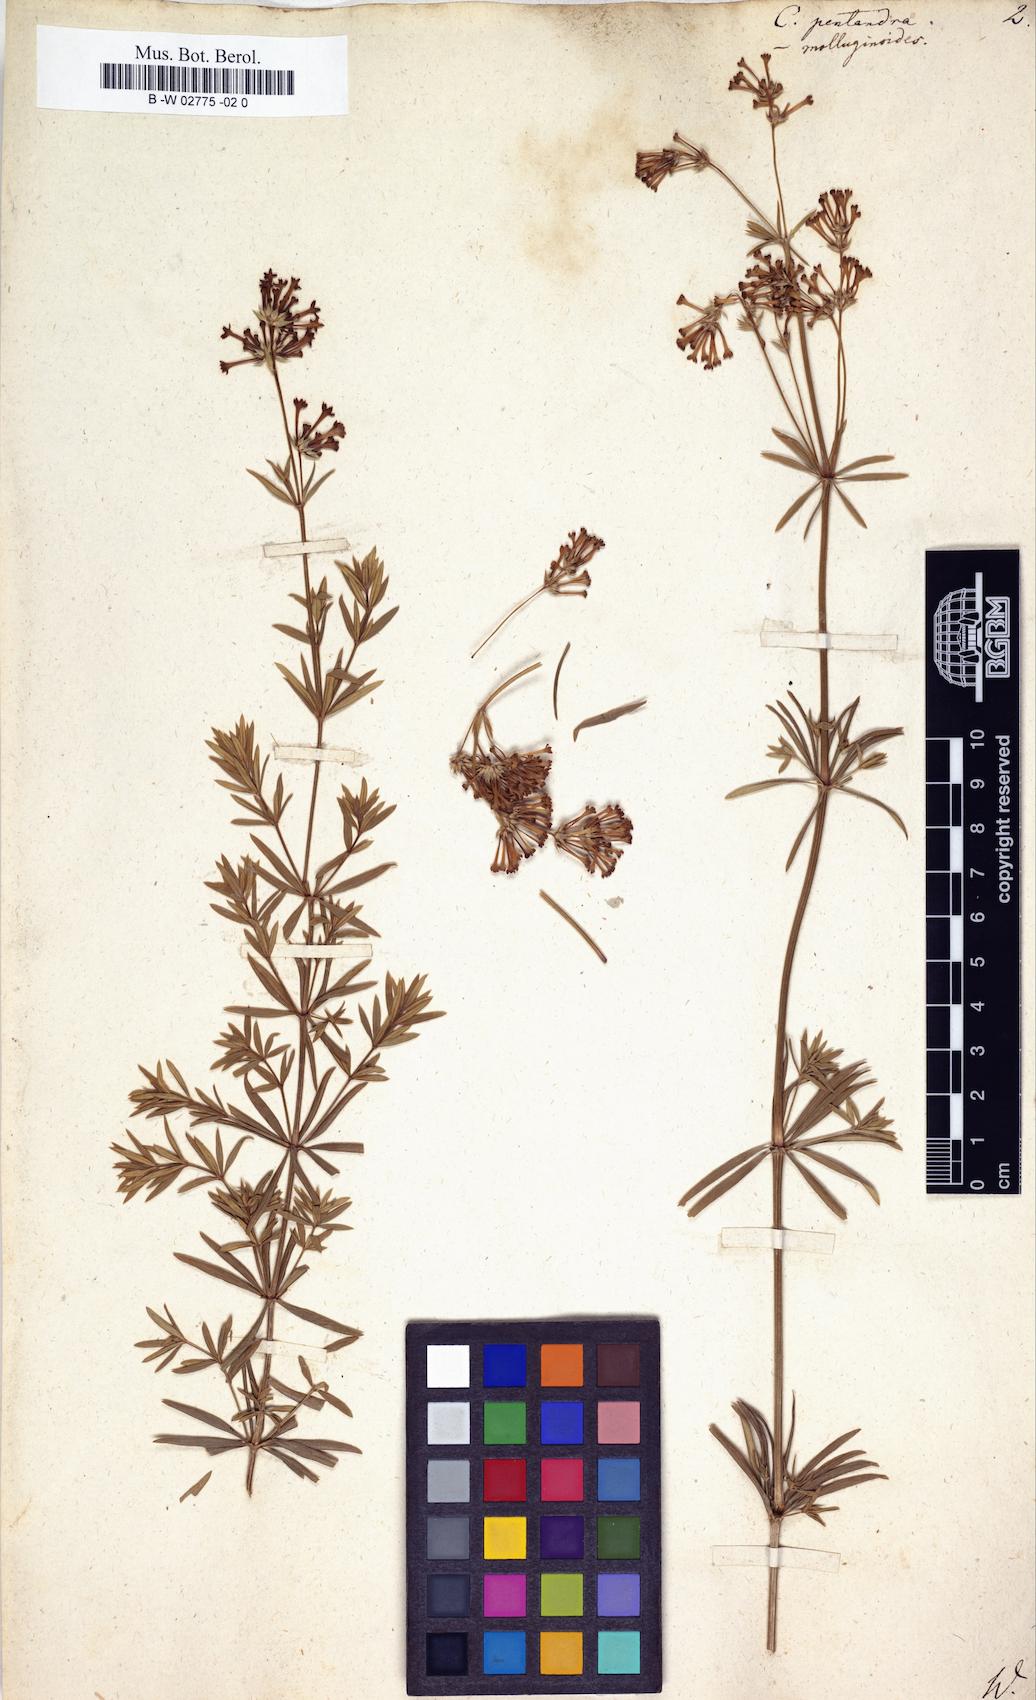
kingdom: Plantae
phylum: Tracheophyta
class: Magnoliopsida
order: Gentianales
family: Rubiaceae
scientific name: Rubiaceae
